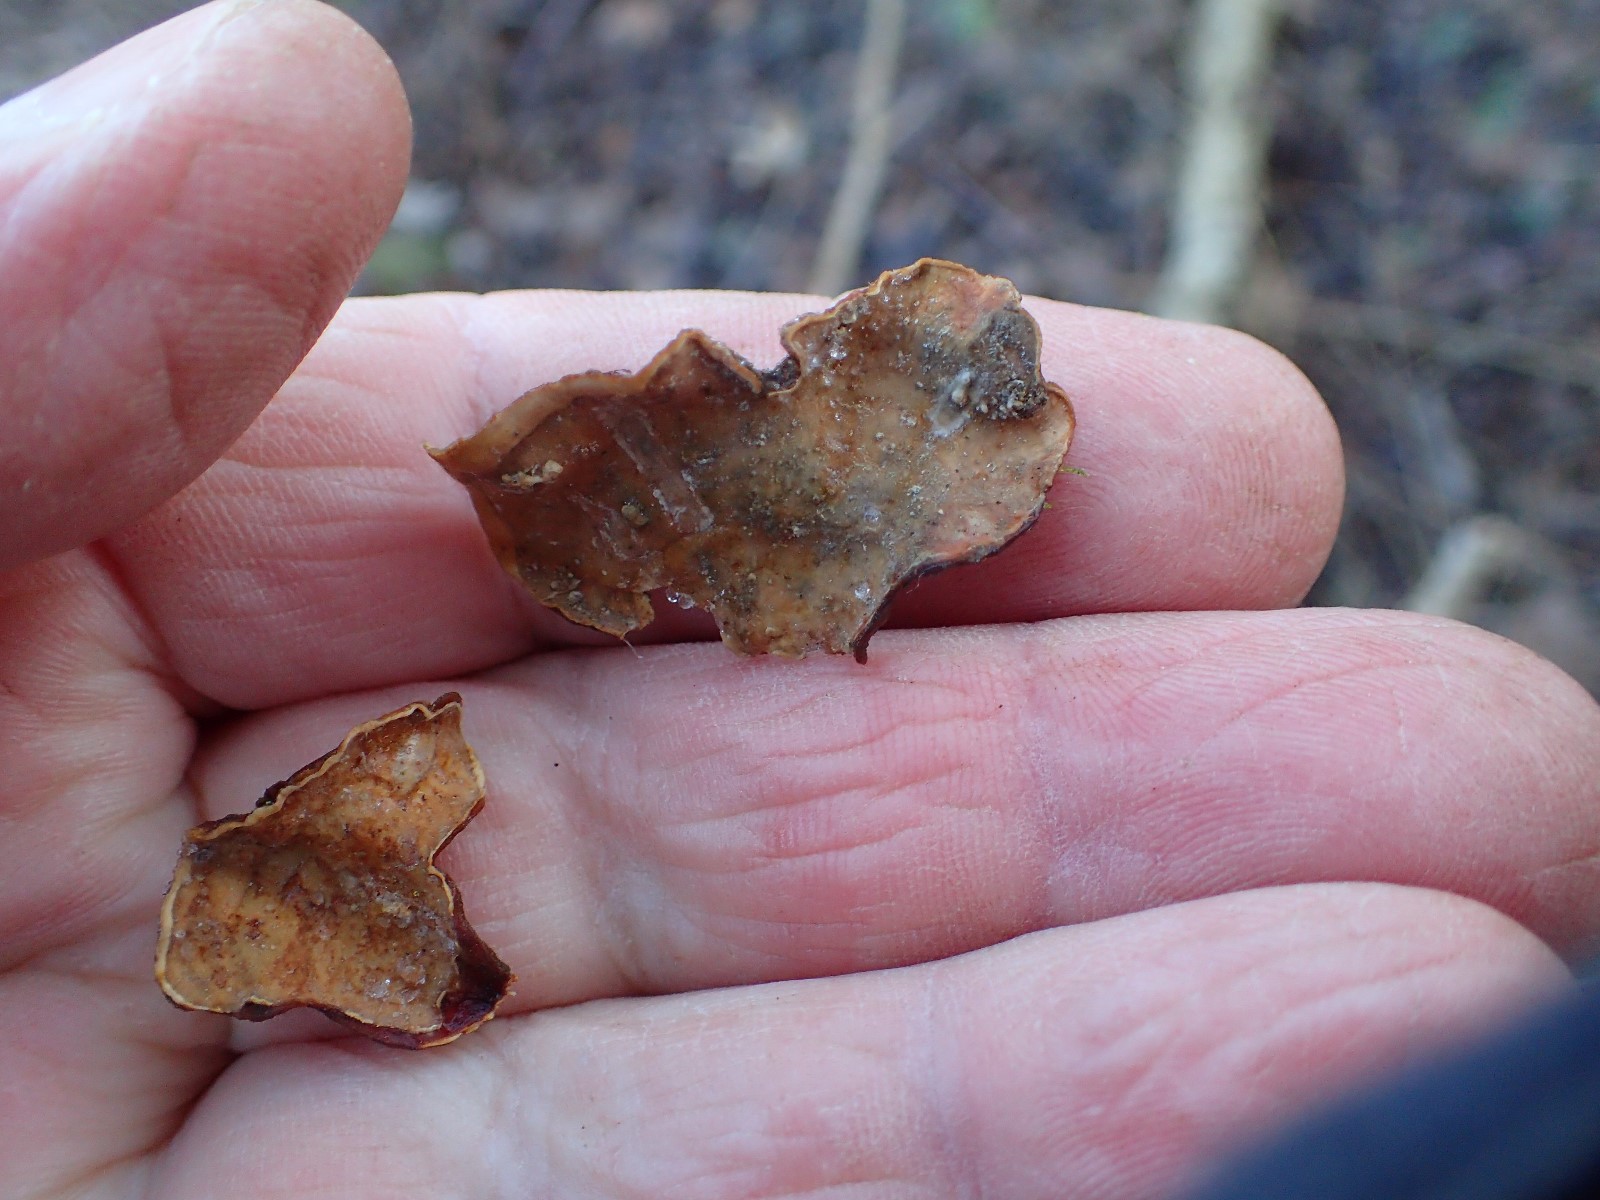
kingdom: Fungi
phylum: Basidiomycota
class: Agaricomycetes
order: Hymenochaetales
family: Hymenochaetaceae
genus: Hydnoporia
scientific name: Hydnoporia tabacina
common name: tobaksbrun ruslædersvamp
